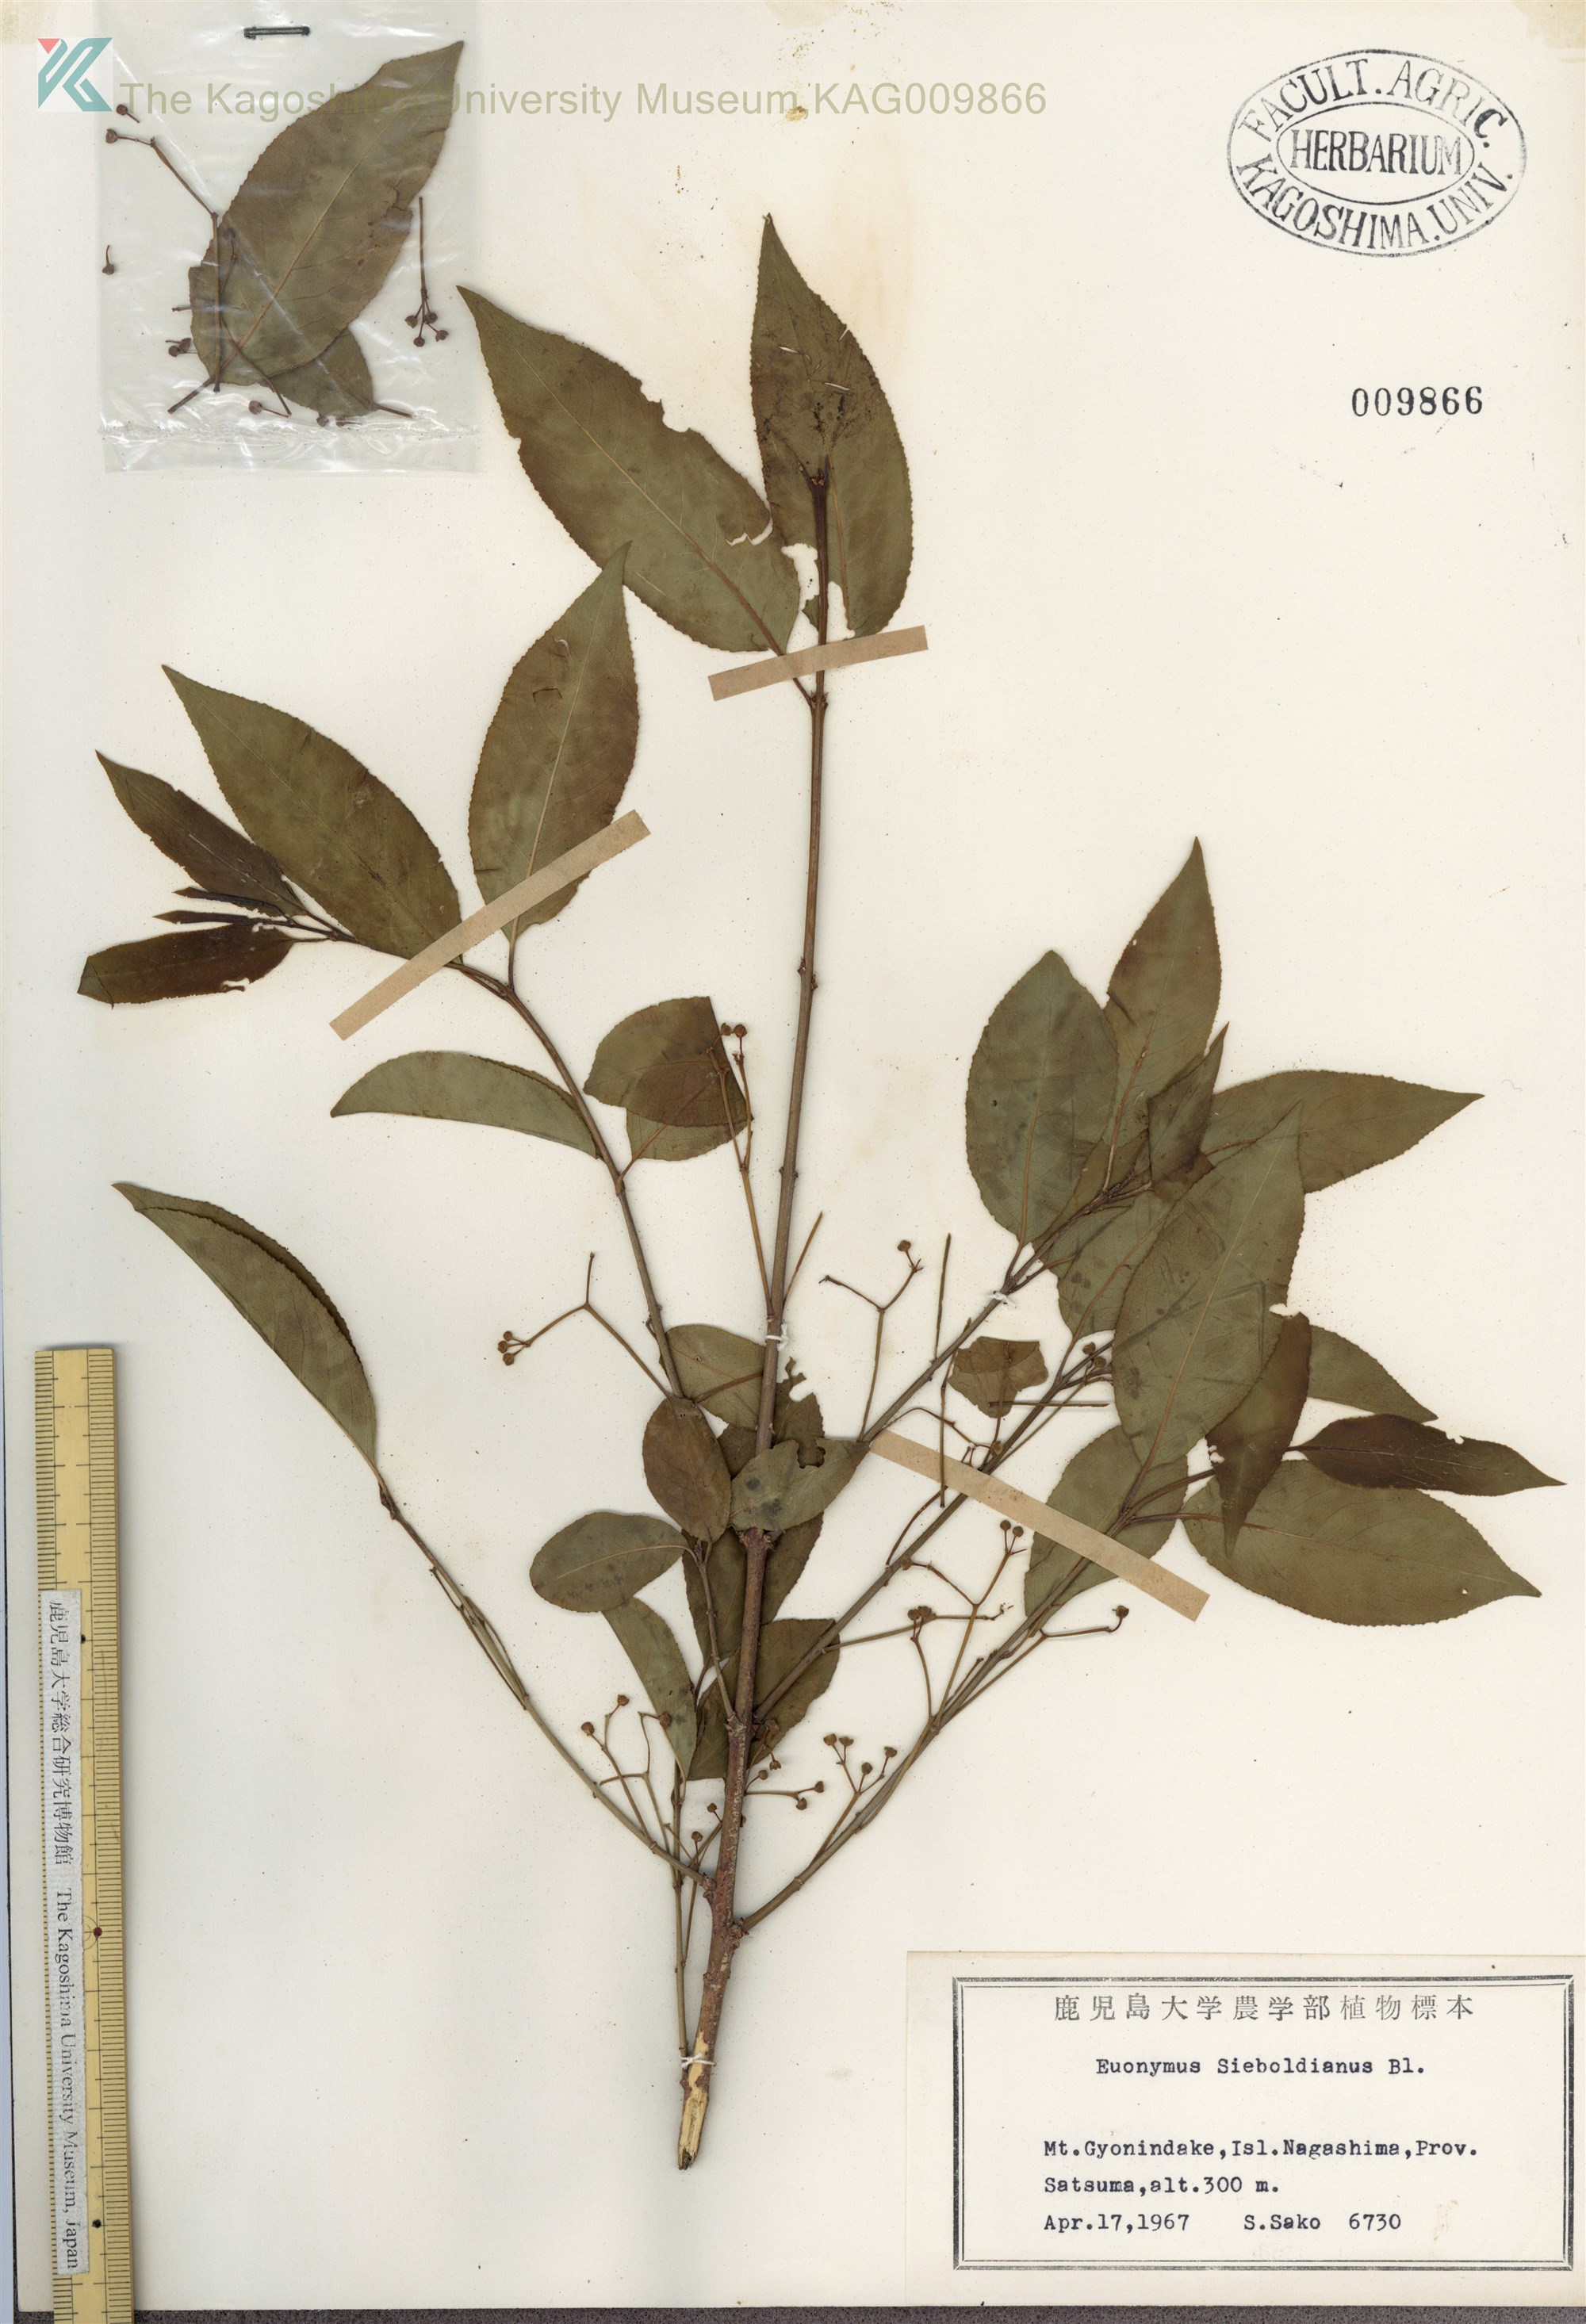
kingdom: Plantae
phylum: Tracheophyta
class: Magnoliopsida
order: Celastrales
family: Celastraceae
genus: Euonymus
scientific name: Euonymus hamiltonianus
